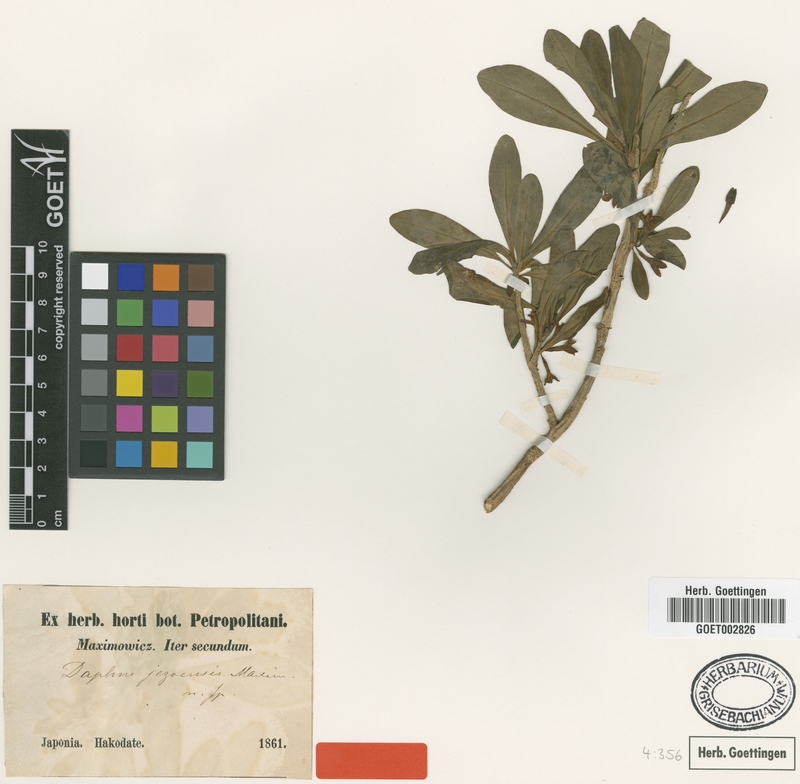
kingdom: Plantae
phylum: Tracheophyta
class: Magnoliopsida
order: Malvales
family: Thymelaeaceae
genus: Daphne
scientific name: Daphne jezoensis
